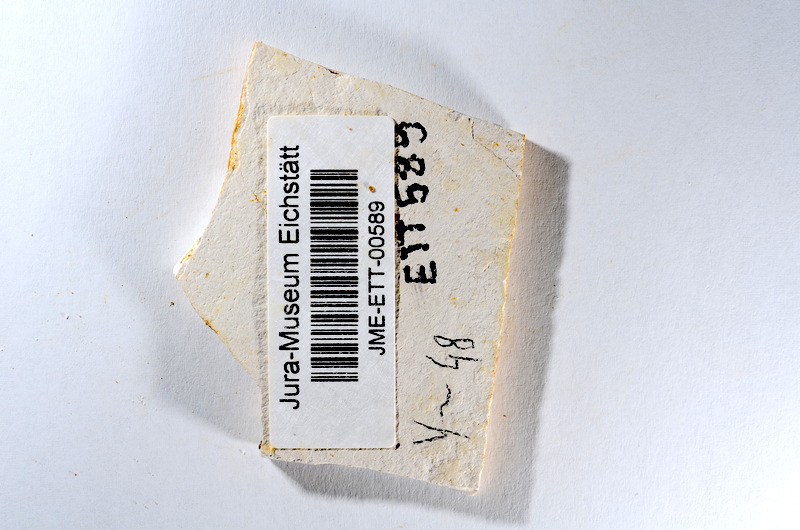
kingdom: Animalia
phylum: Chordata
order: Salmoniformes
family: Orthogonikleithridae
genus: Orthogonikleithrus
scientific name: Orthogonikleithrus hoelli
